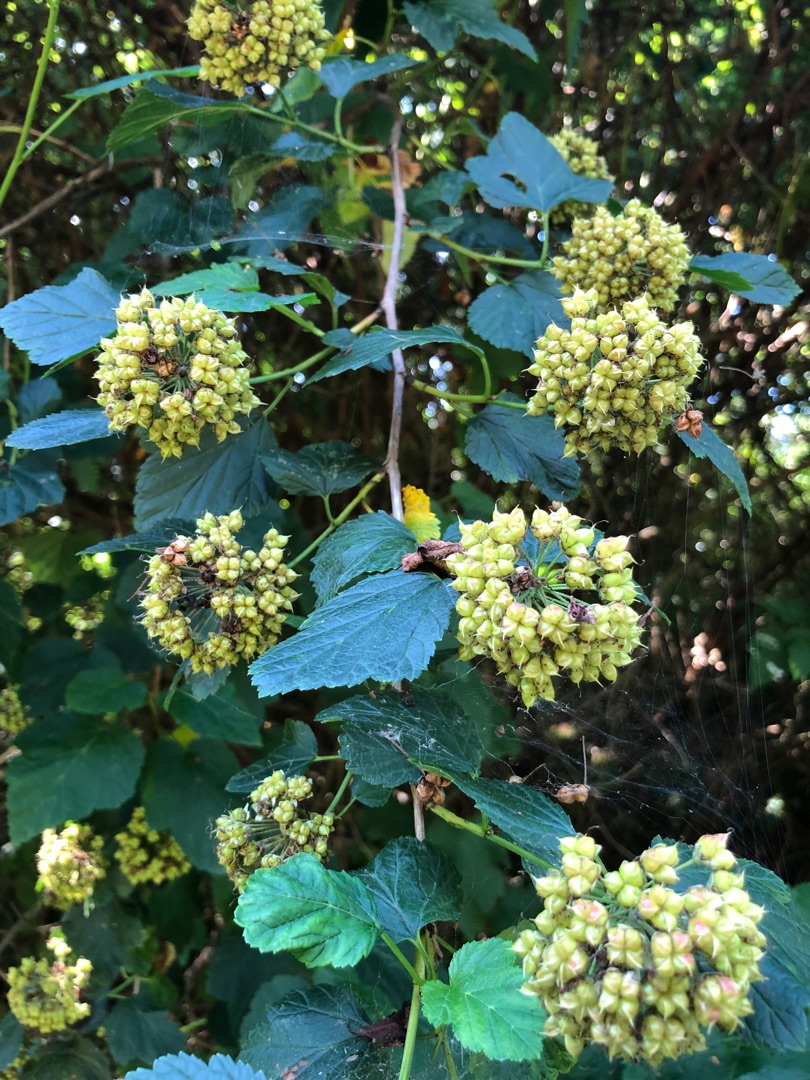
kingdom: Plantae
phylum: Tracheophyta
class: Magnoliopsida
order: Rosales
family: Rosaceae
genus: Physocarpus
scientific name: Physocarpus opulifolius
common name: Almindelig blærespiræa
